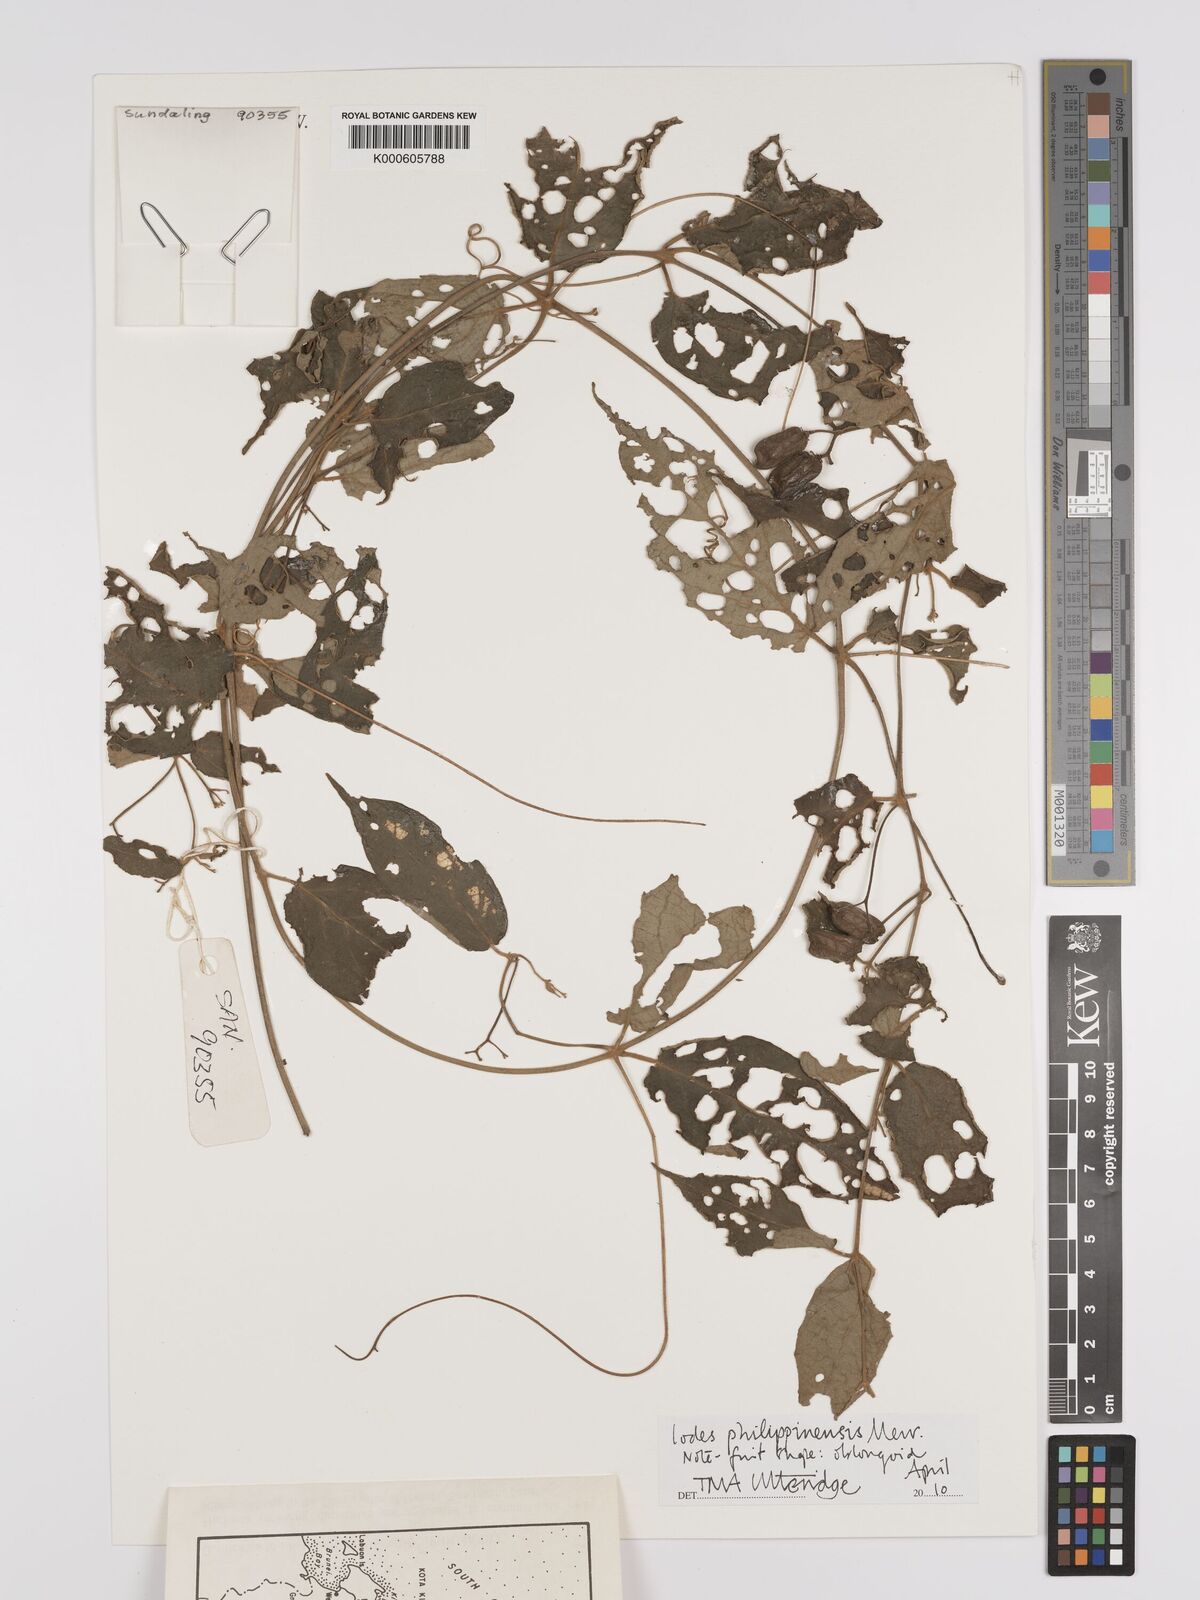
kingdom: Plantae
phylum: Tracheophyta
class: Magnoliopsida
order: Icacinales
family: Icacinaceae
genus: Iodes
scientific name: Iodes philippinensis
